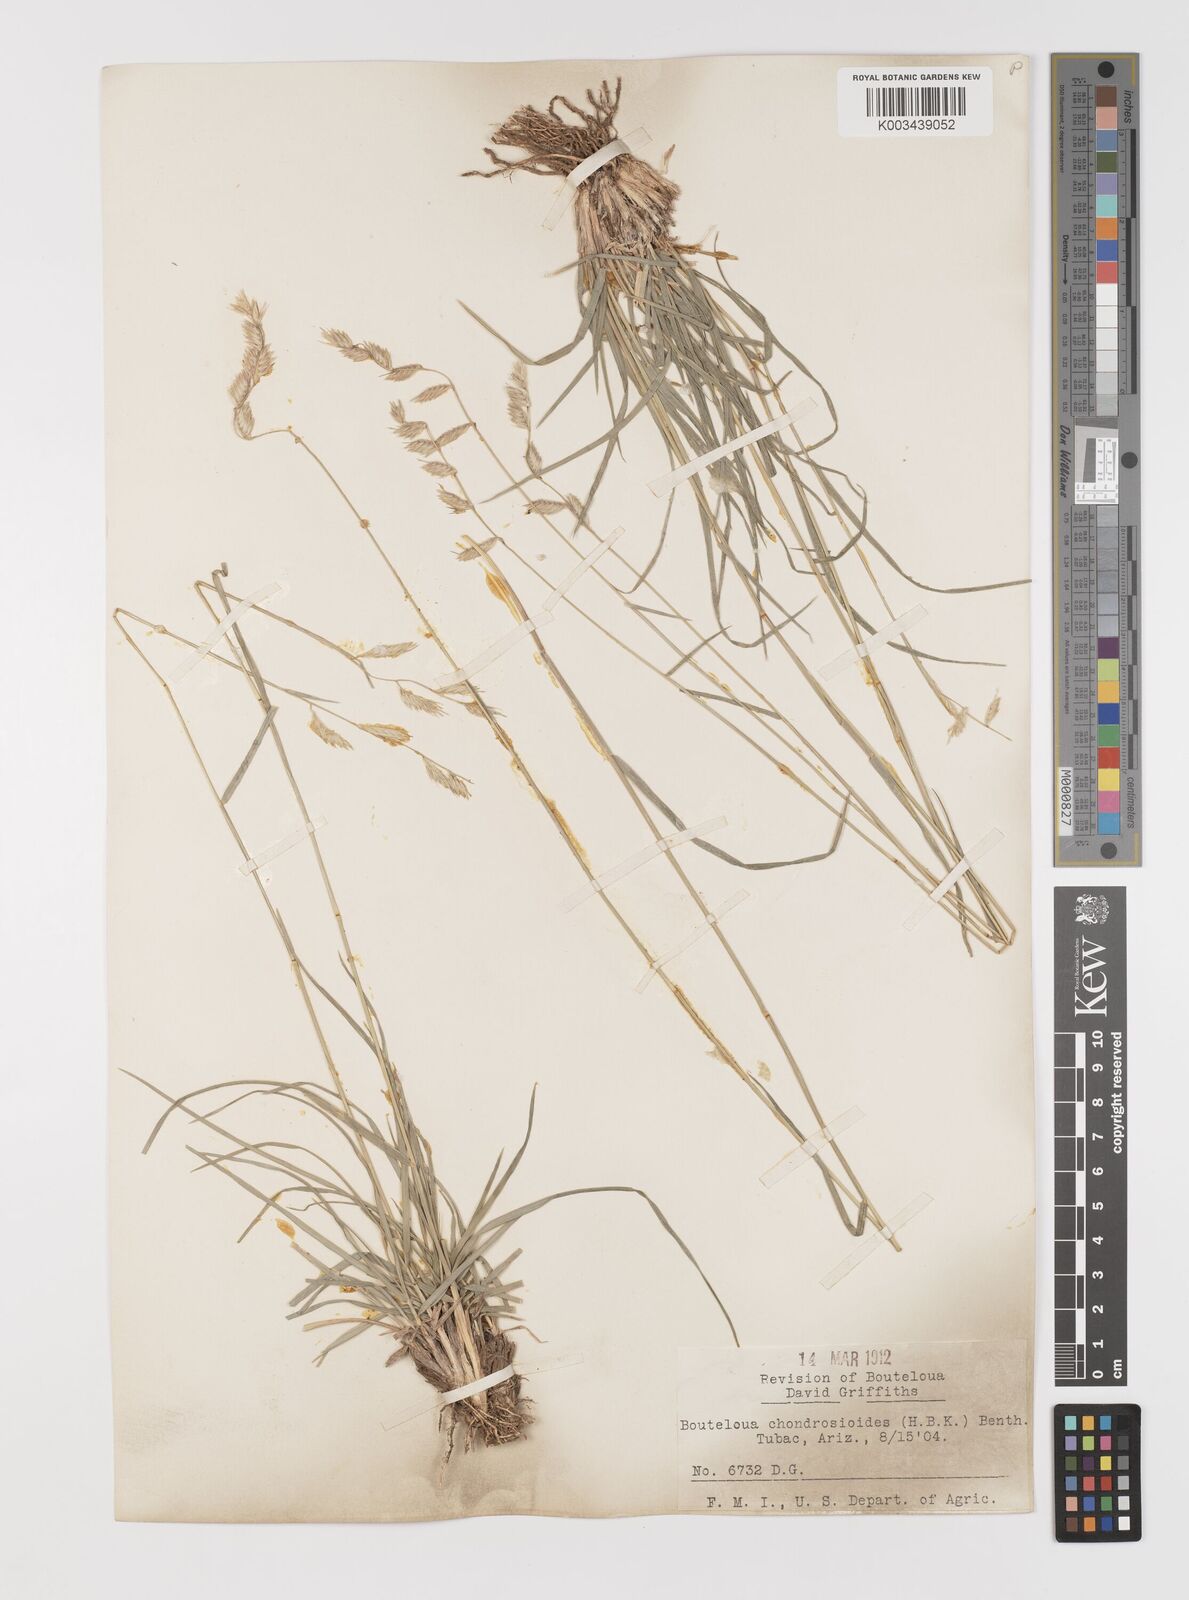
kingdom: Plantae
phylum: Tracheophyta
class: Liliopsida
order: Poales
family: Poaceae
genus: Bouteloua
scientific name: Bouteloua chondrosioides
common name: Sprucetop grama
